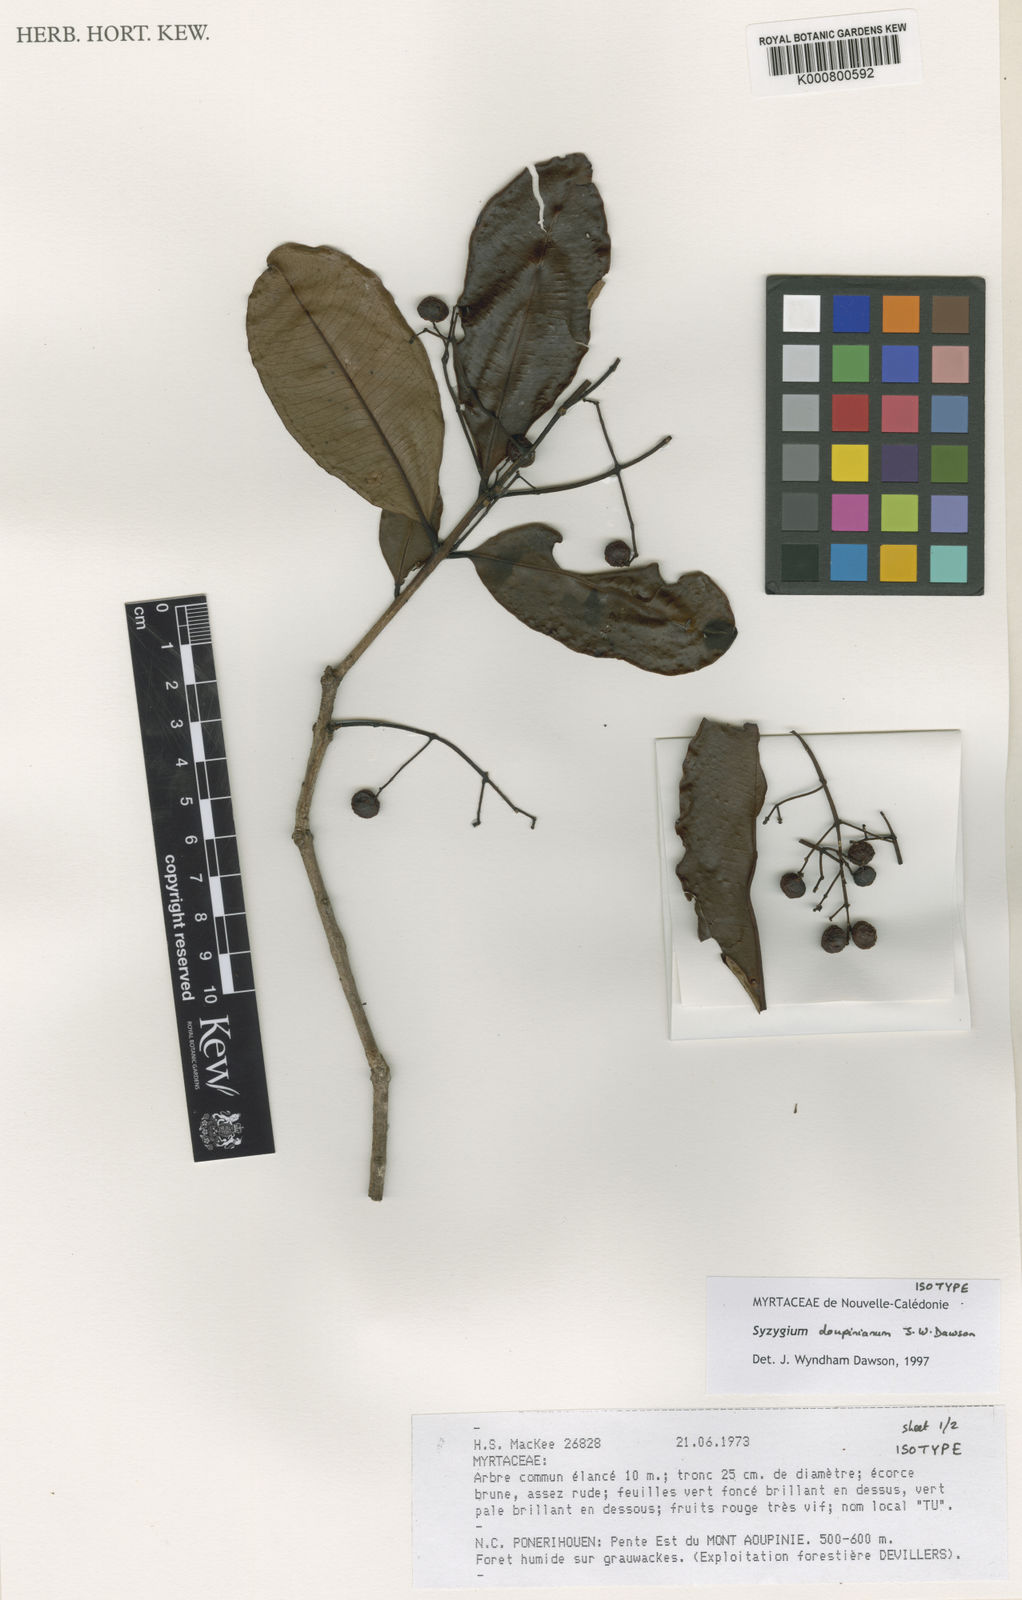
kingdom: Plantae
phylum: Tracheophyta
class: Magnoliopsida
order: Myrtales
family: Myrtaceae
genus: Syzygium
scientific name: Syzygium
